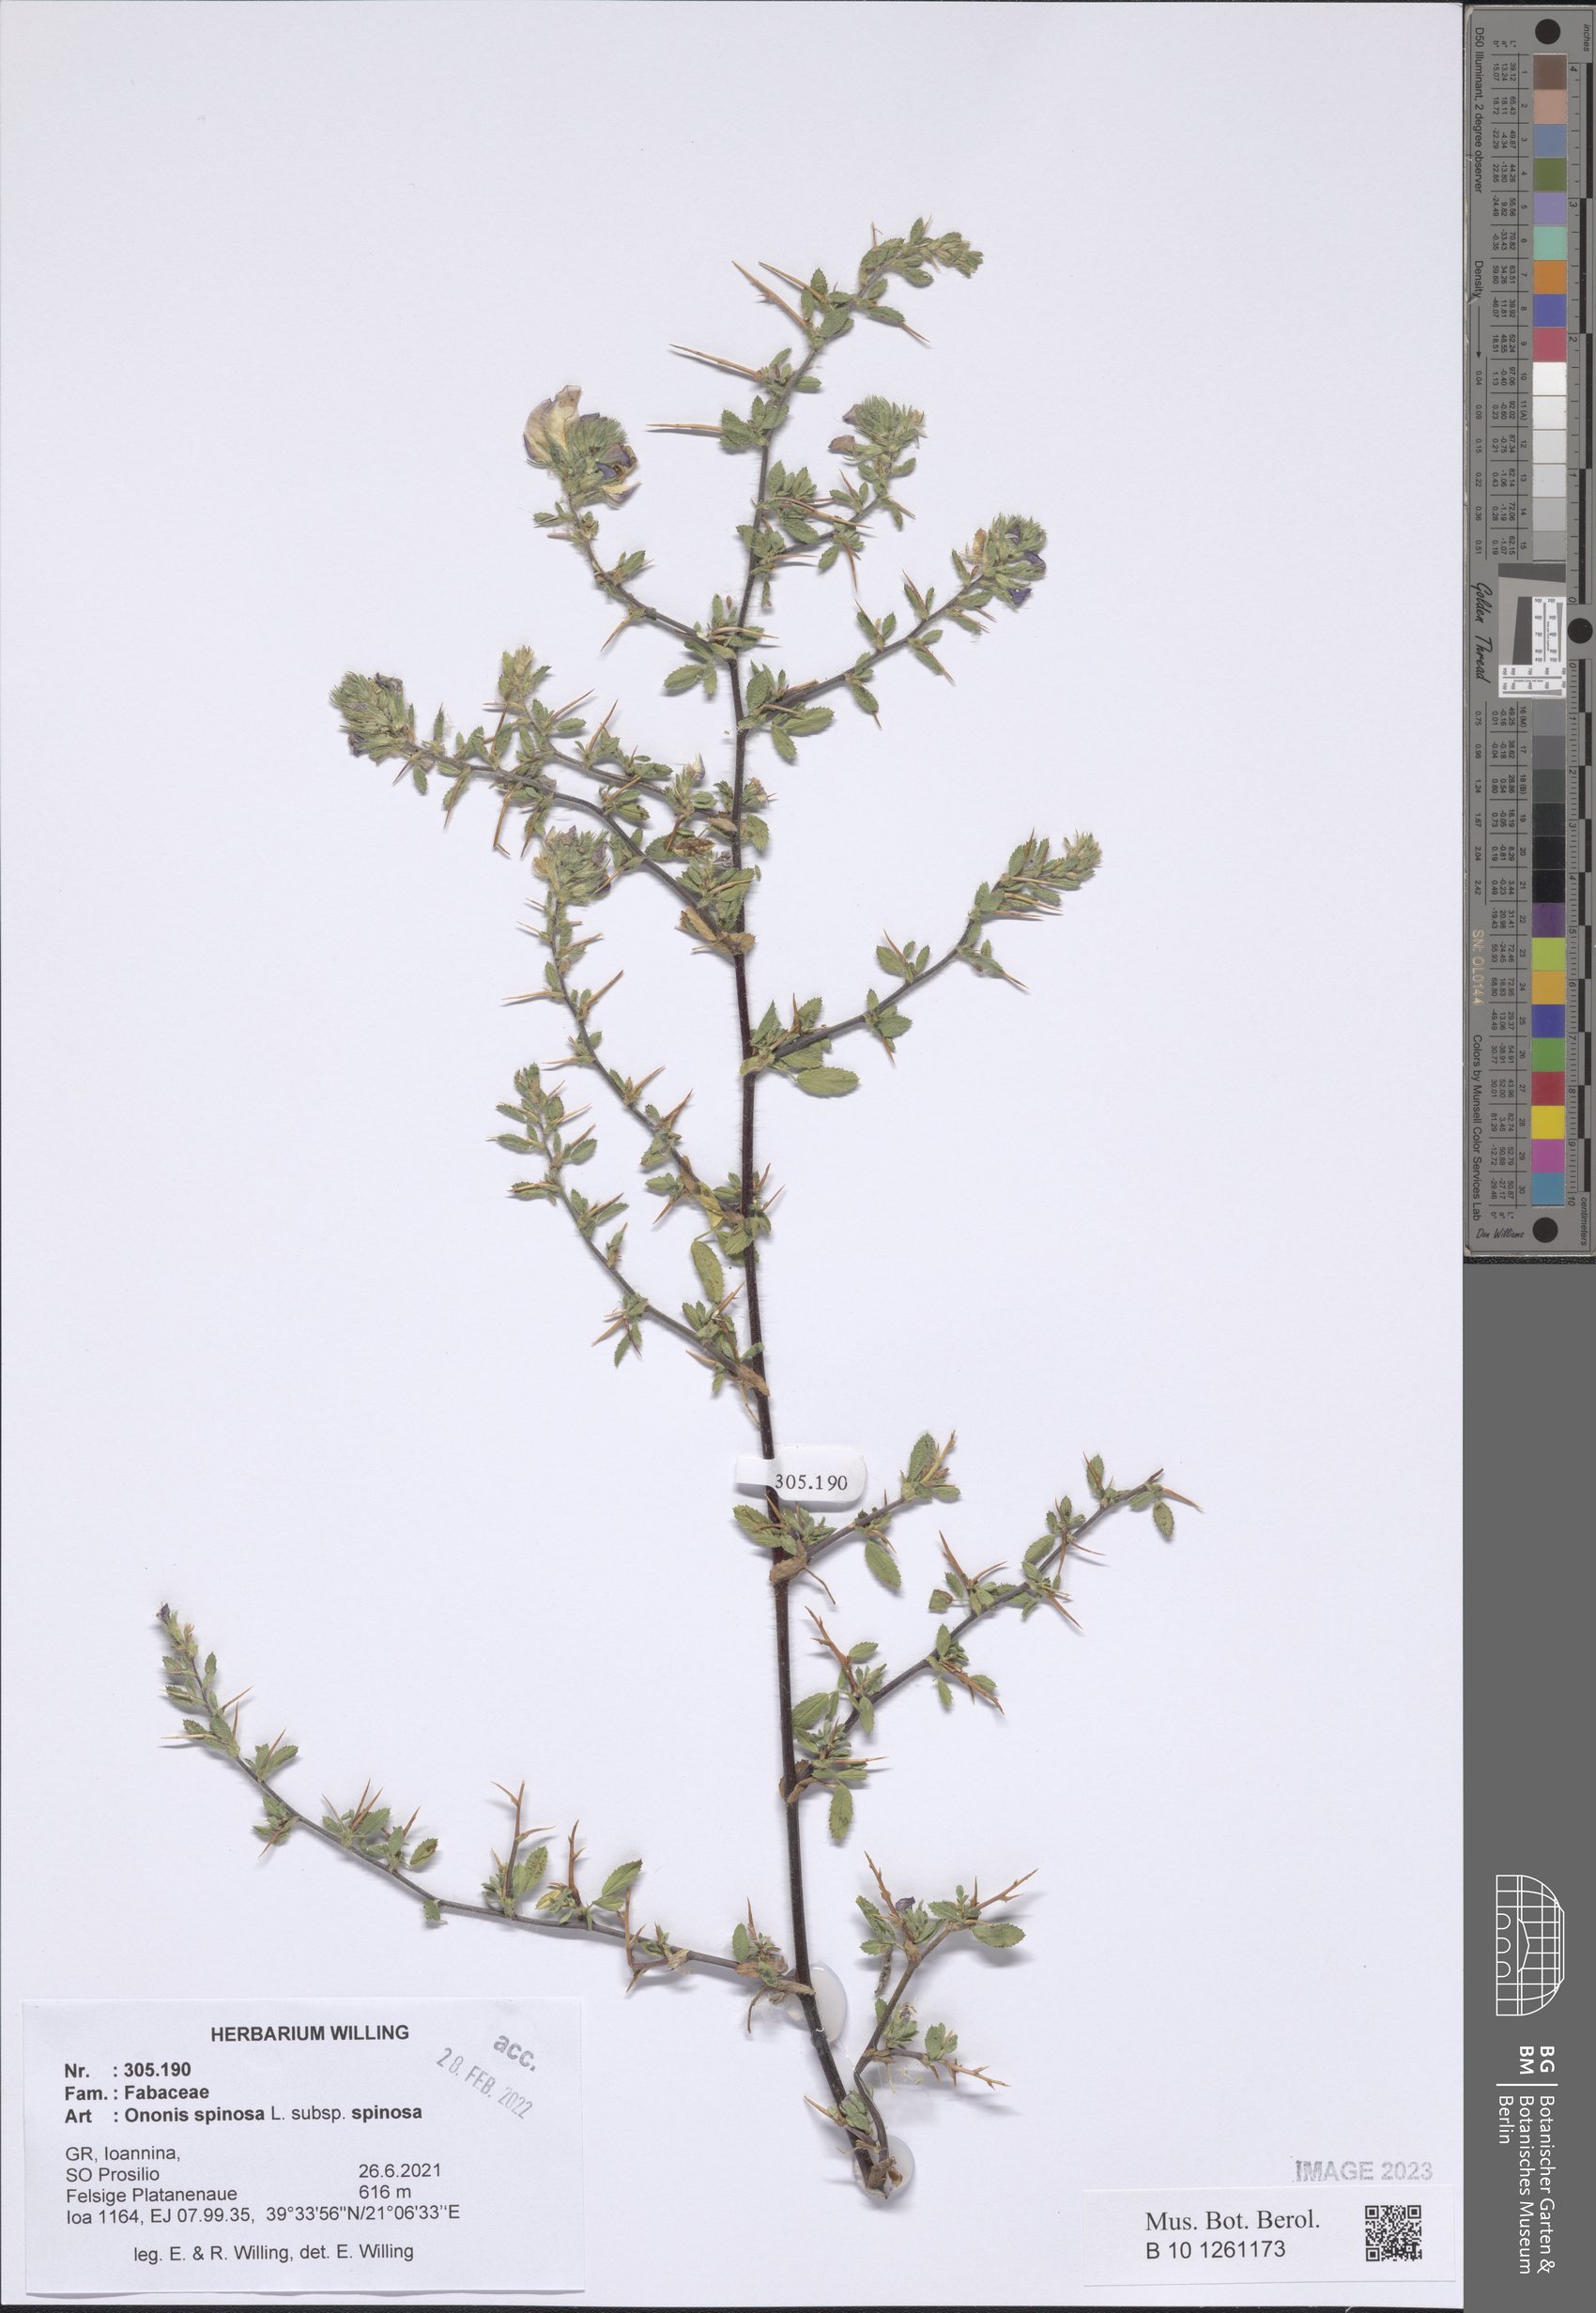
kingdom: Plantae
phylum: Tracheophyta
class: Magnoliopsida
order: Fabales
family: Fabaceae
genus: Ononis
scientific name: Ononis spinosa
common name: Spiny restharrow
